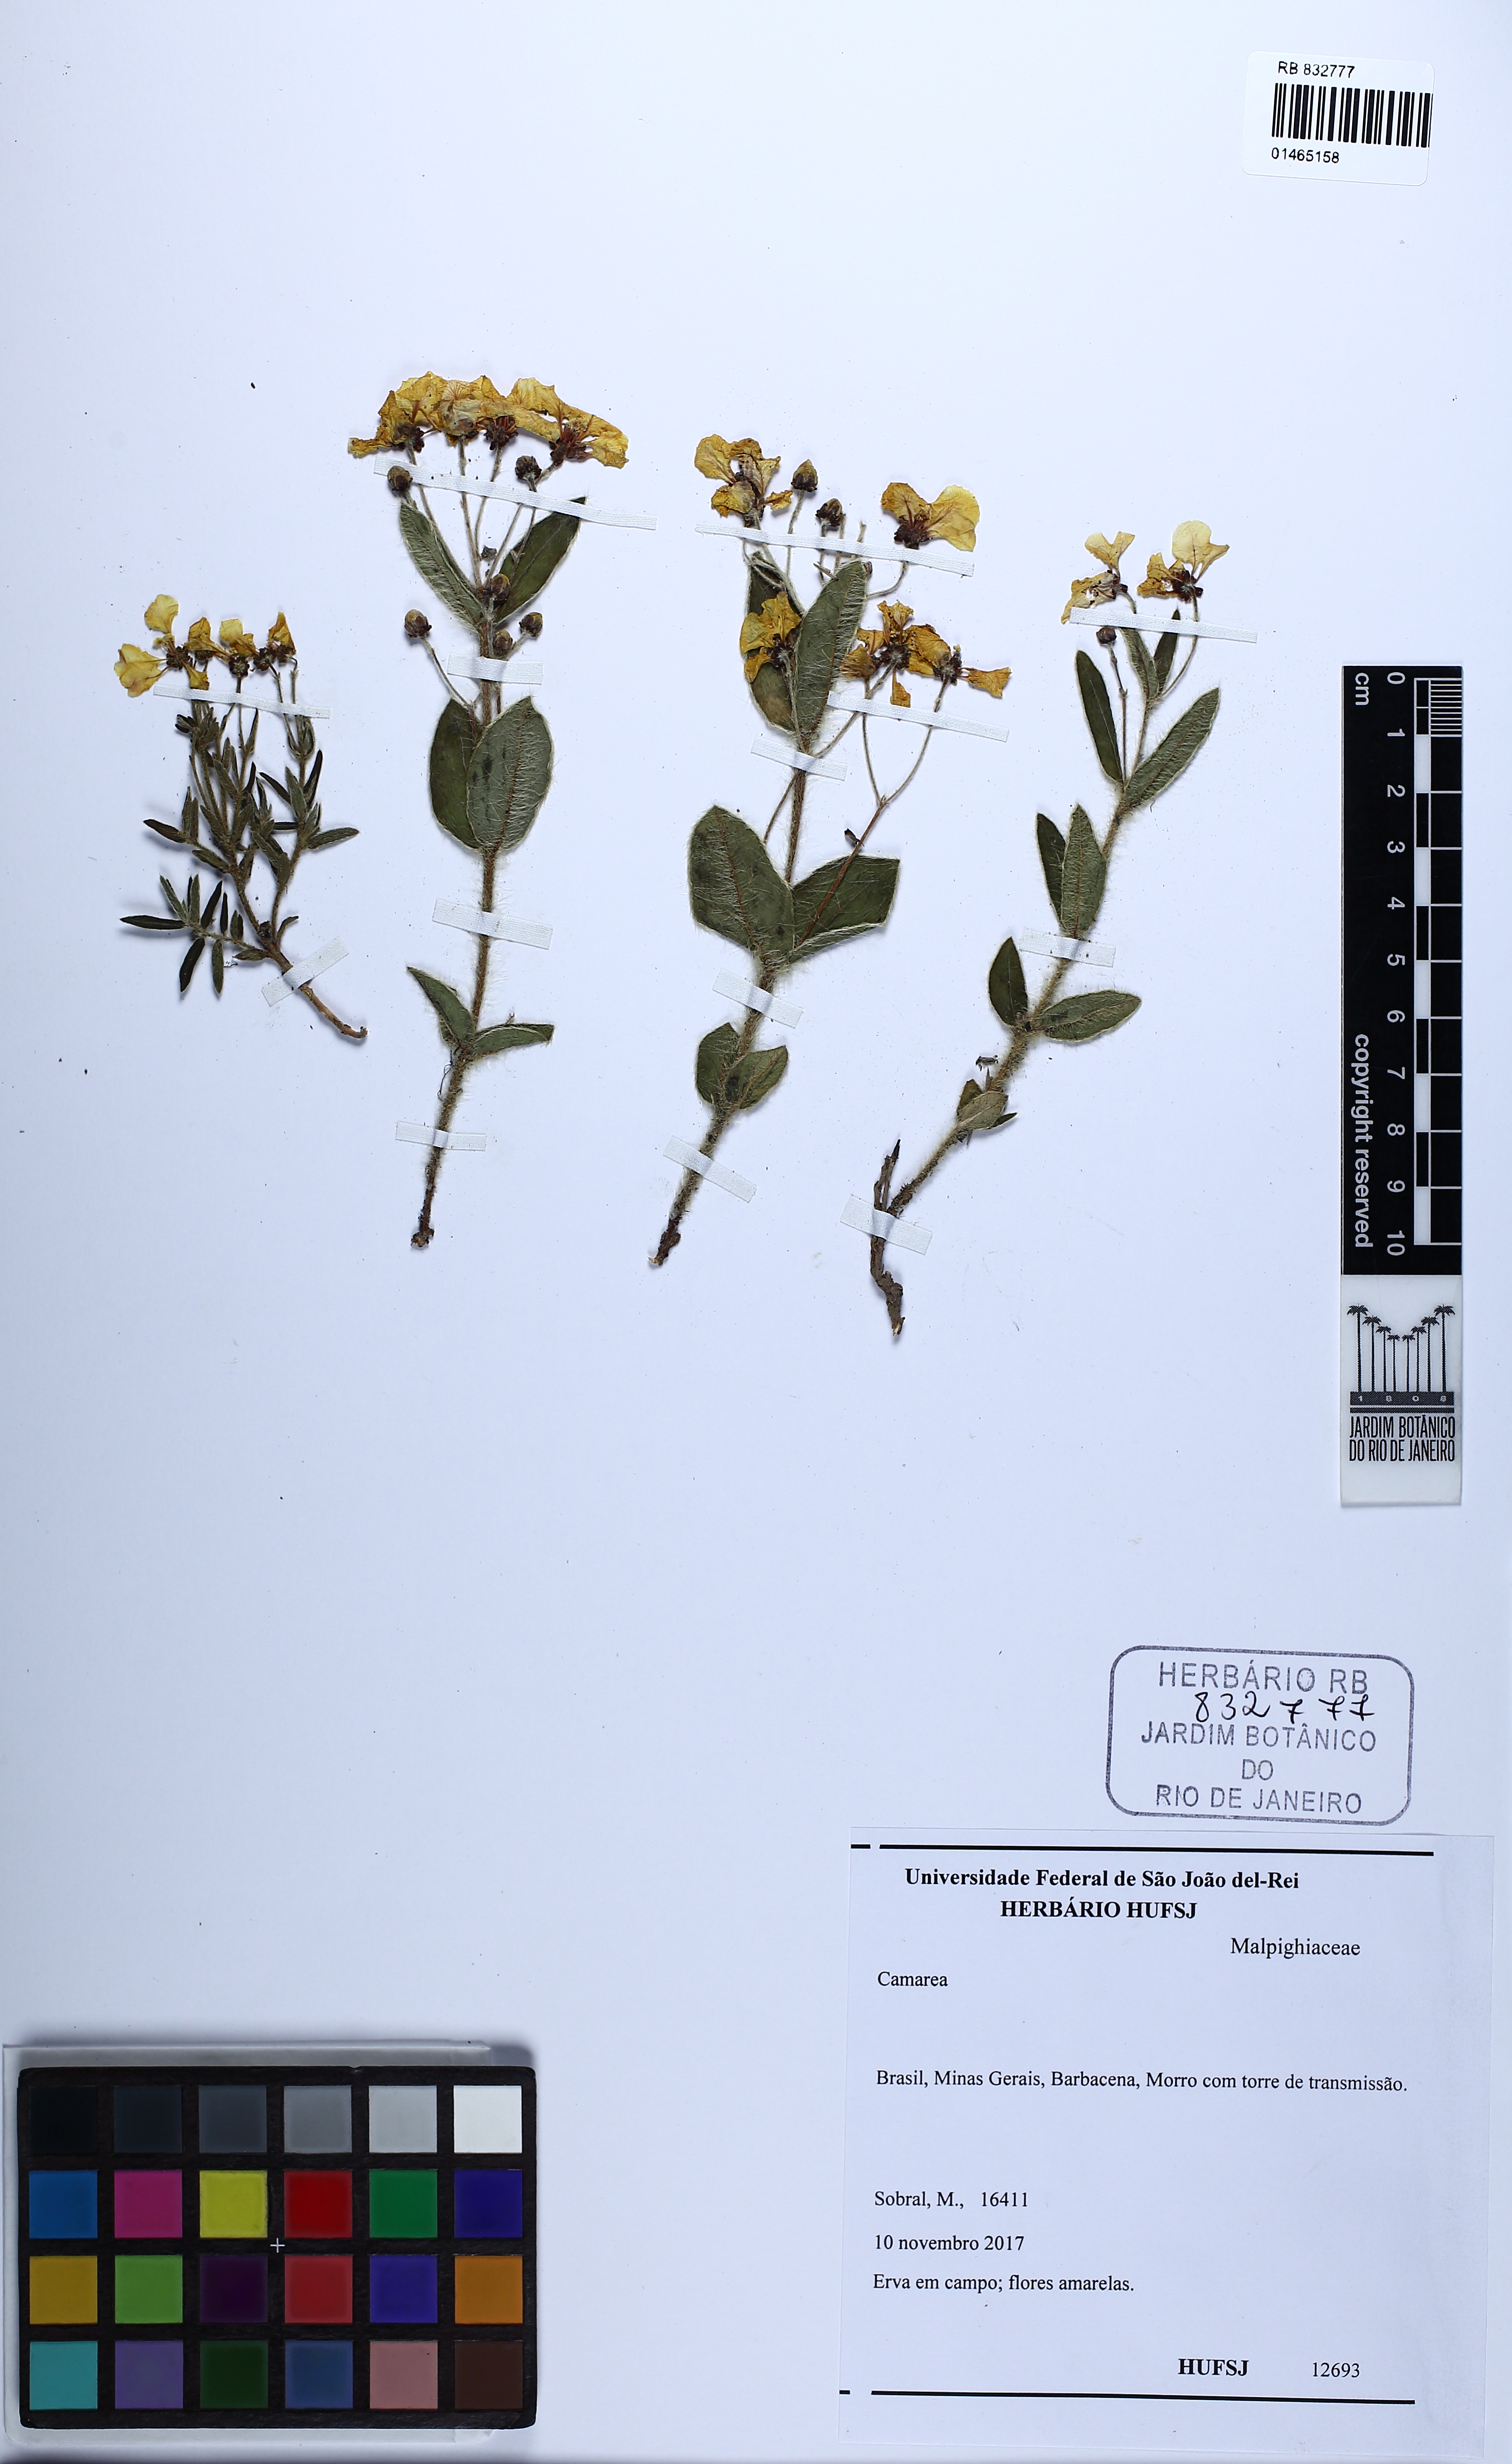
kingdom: Plantae
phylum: Tracheophyta
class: Magnoliopsida
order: Malpighiales
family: Malpighiaceae
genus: Camarea
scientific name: Camarea
